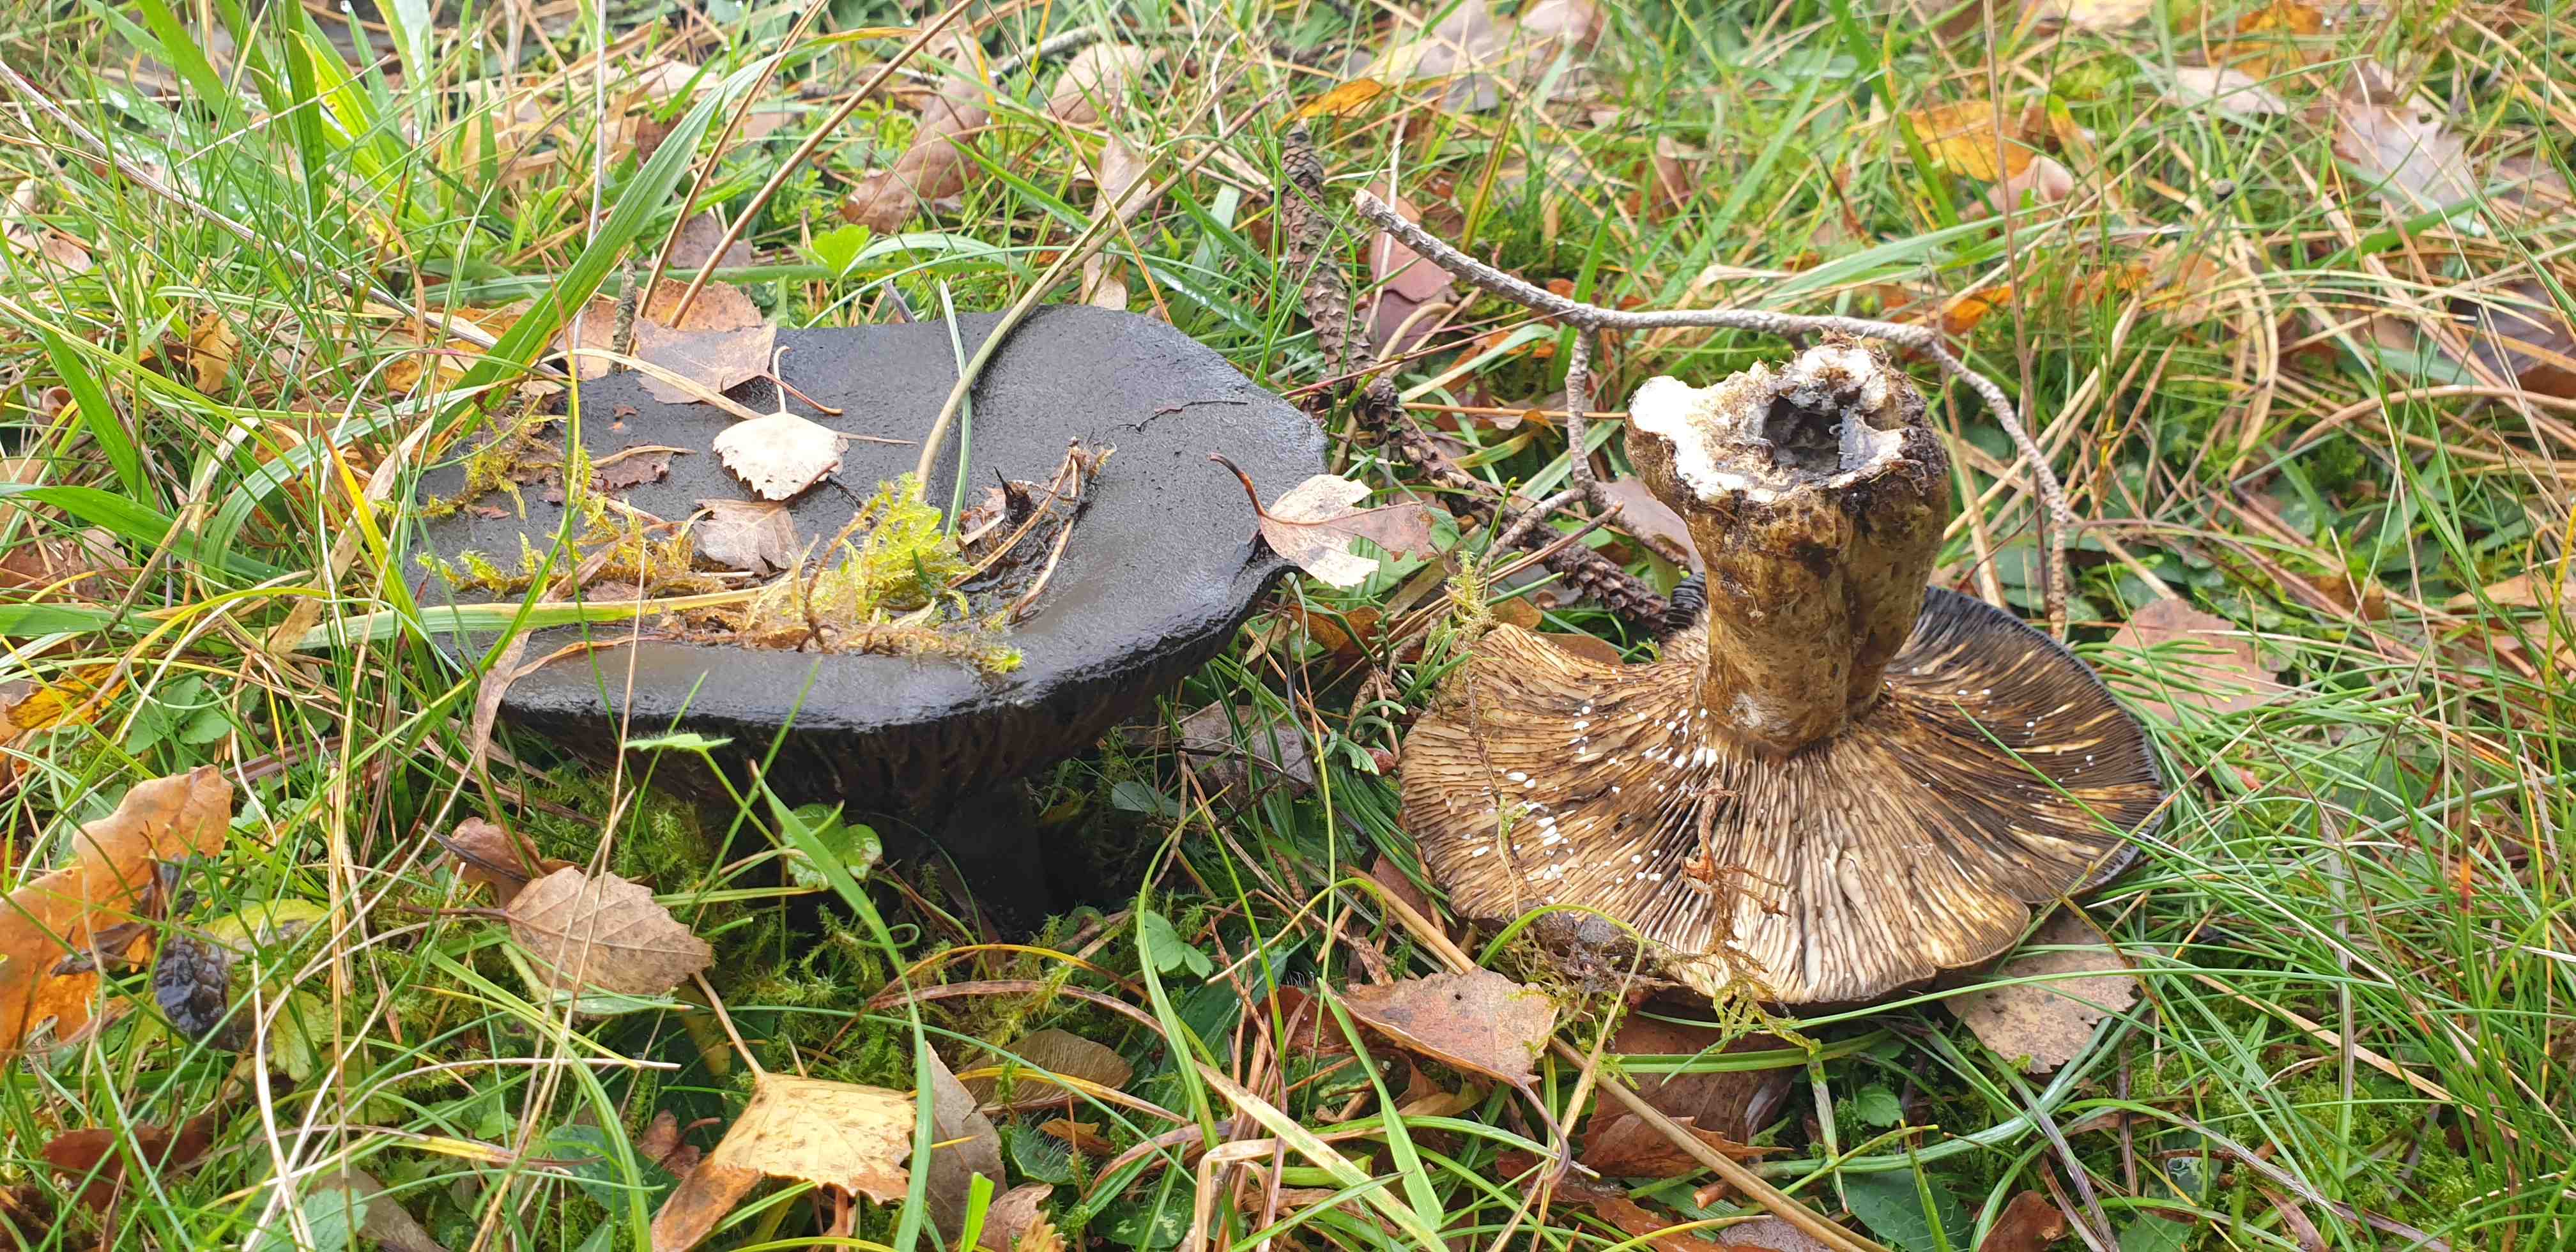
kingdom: Fungi
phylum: Basidiomycota
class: Agaricomycetes
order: Russulales
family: Russulaceae
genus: Lactarius
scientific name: Lactarius necator
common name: manddraber-mælkehat
